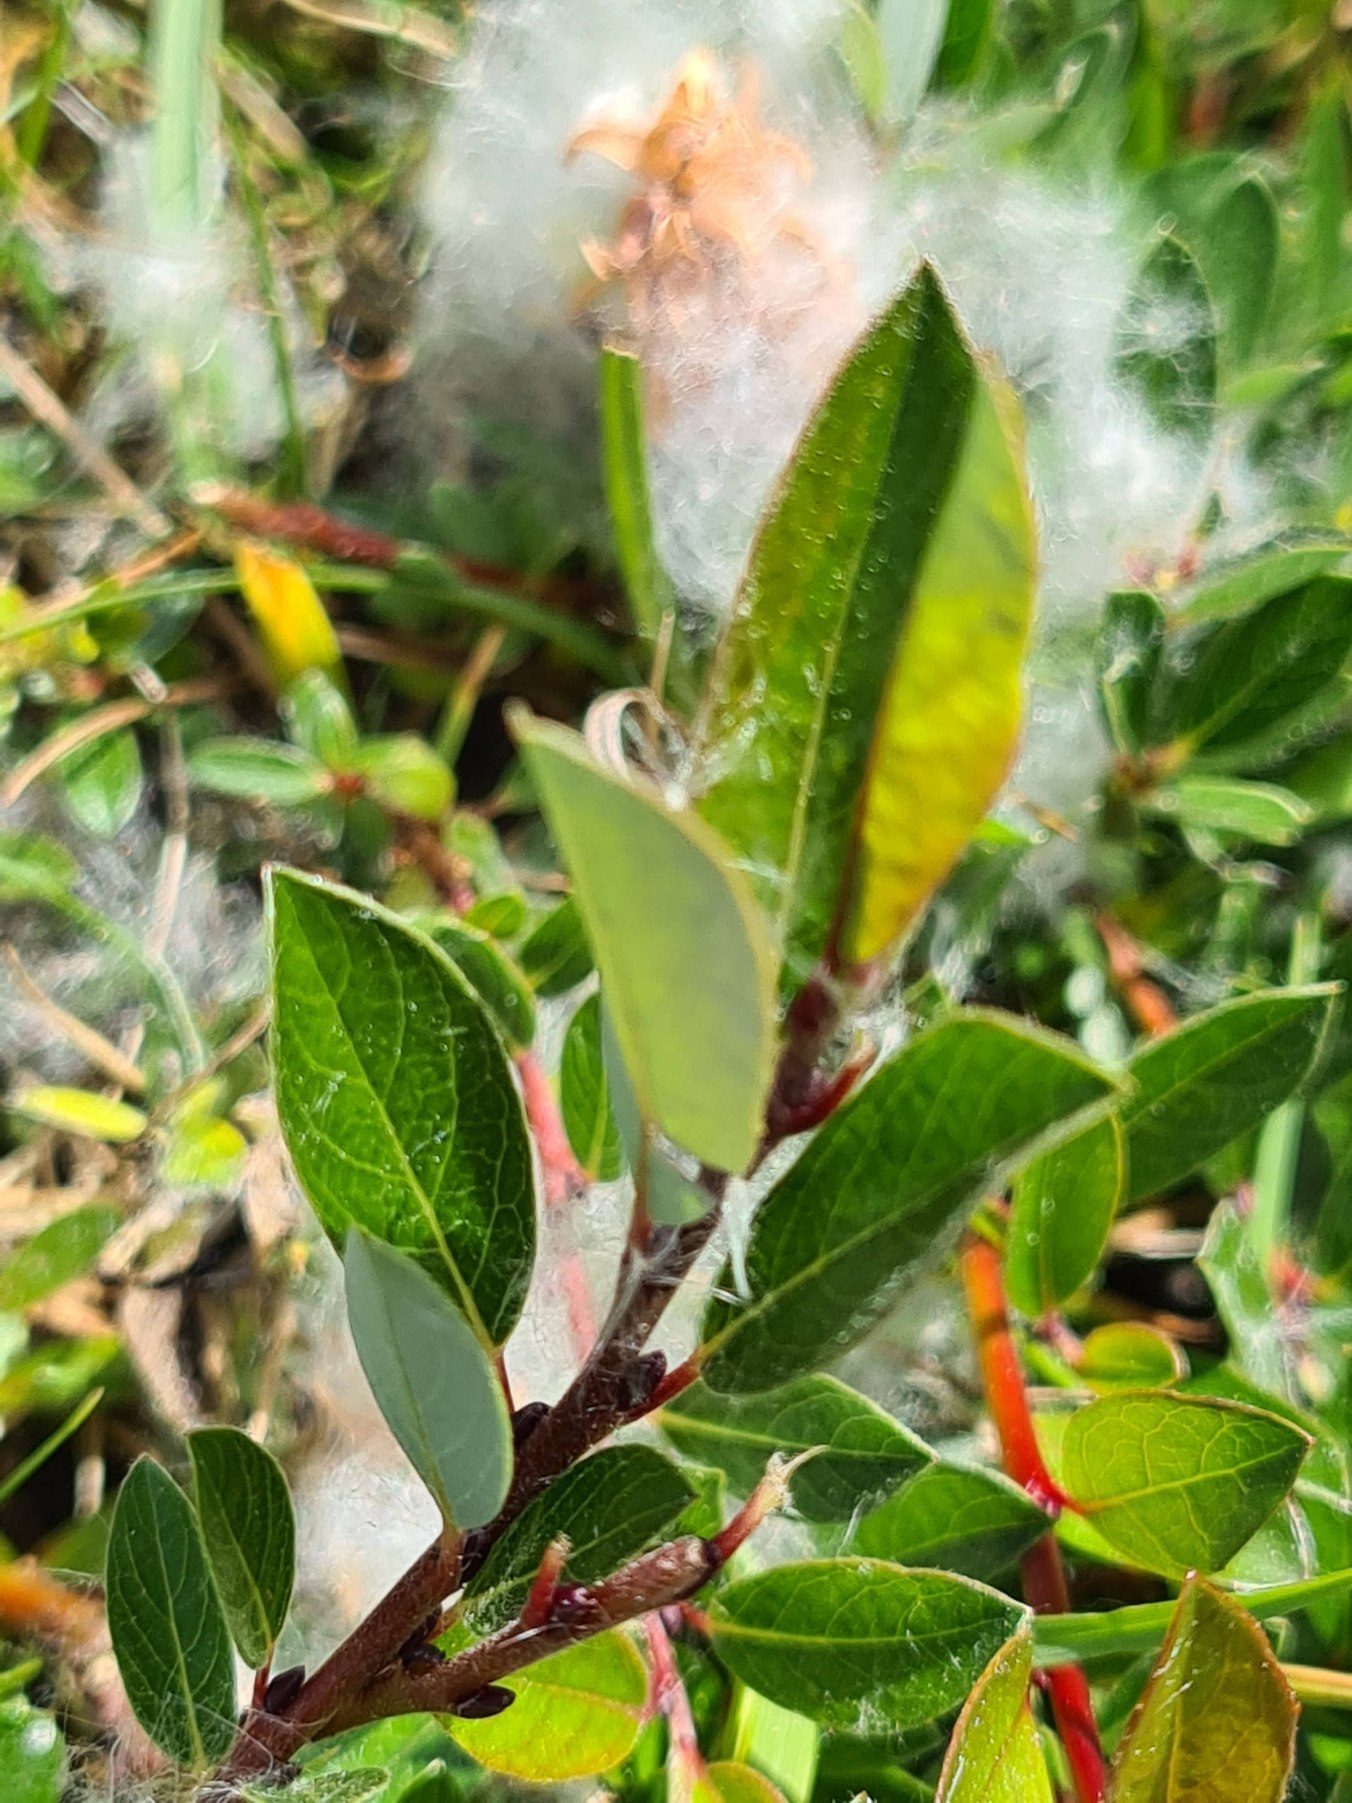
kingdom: Plantae
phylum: Tracheophyta
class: Magnoliopsida
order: Malpighiales
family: Salicaceae
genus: Salix
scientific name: Salix repens
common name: Krybende pil
